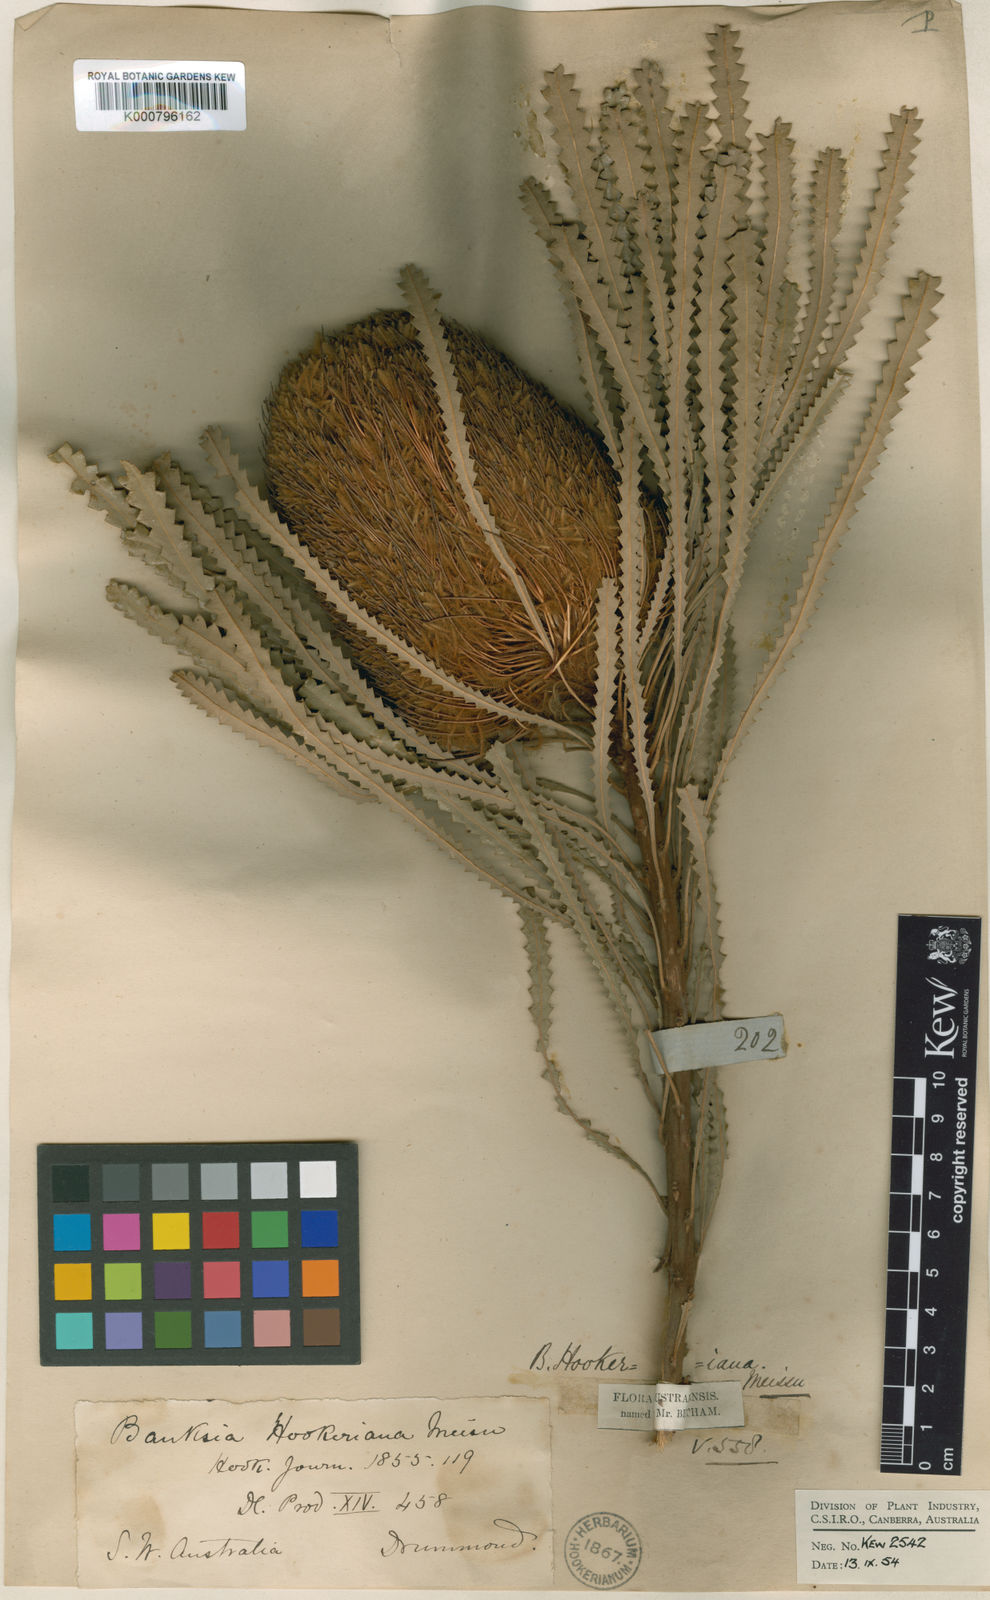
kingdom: Plantae
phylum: Tracheophyta
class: Magnoliopsida
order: Proteales
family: Proteaceae
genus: Banksia
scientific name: Banksia hookeriana
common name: Hooker's banksia
